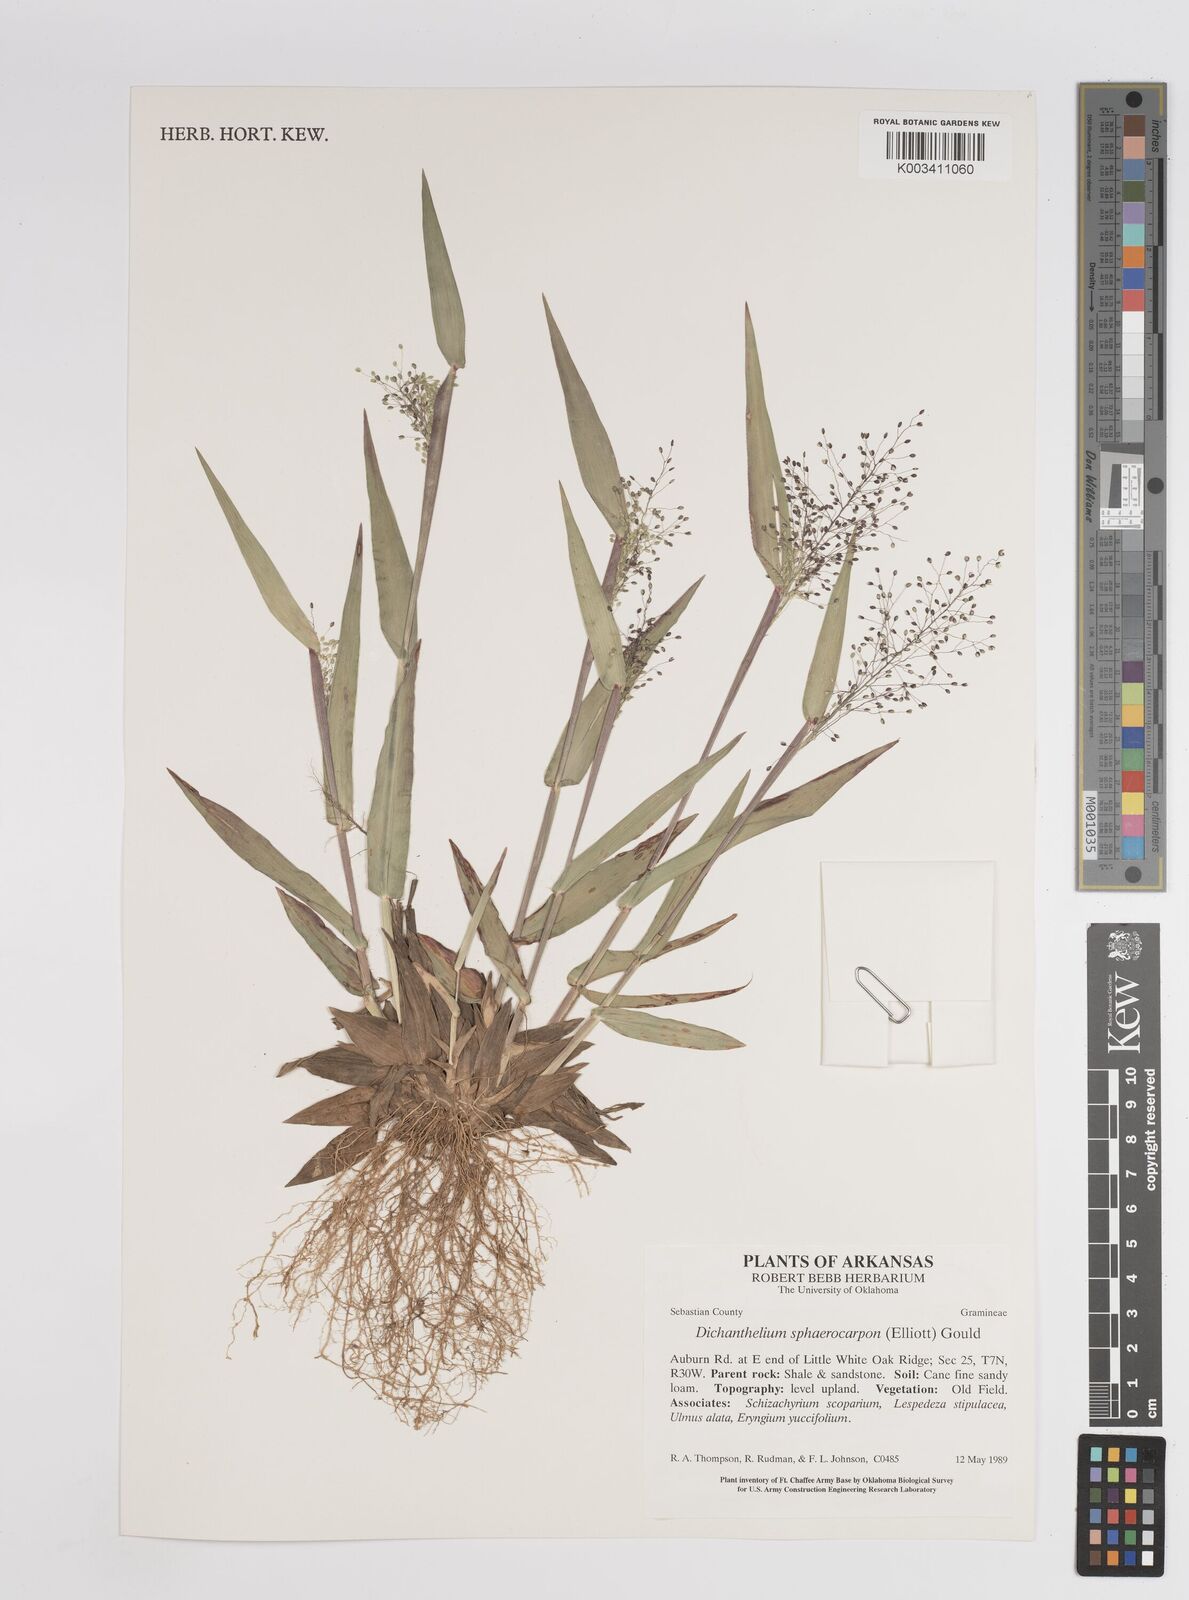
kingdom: Plantae
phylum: Tracheophyta
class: Liliopsida
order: Poales
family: Poaceae
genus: Dichanthelium
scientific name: Dichanthelium polyanthes
